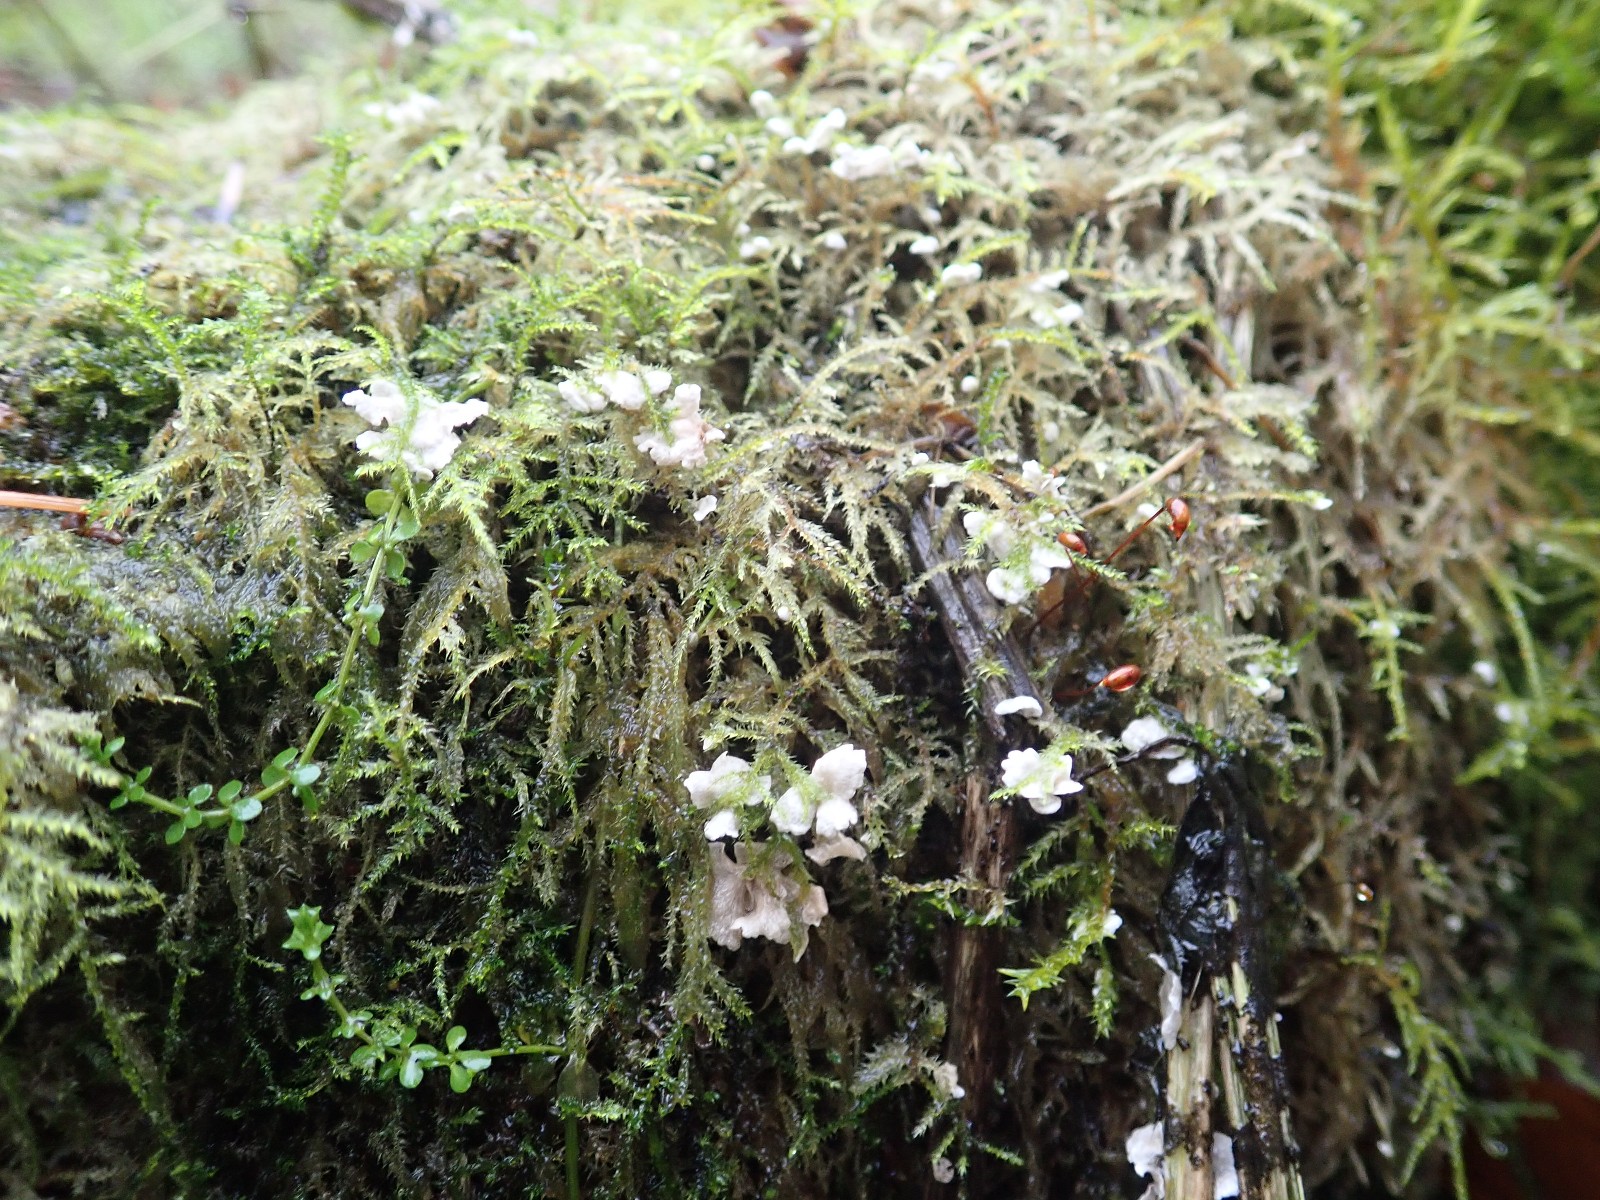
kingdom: Fungi
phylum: Basidiomycota
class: Agaricomycetes
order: Agaricales
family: Hygrophoraceae
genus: Arrhenia
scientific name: Arrhenia retiruga
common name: lille fontænehat
